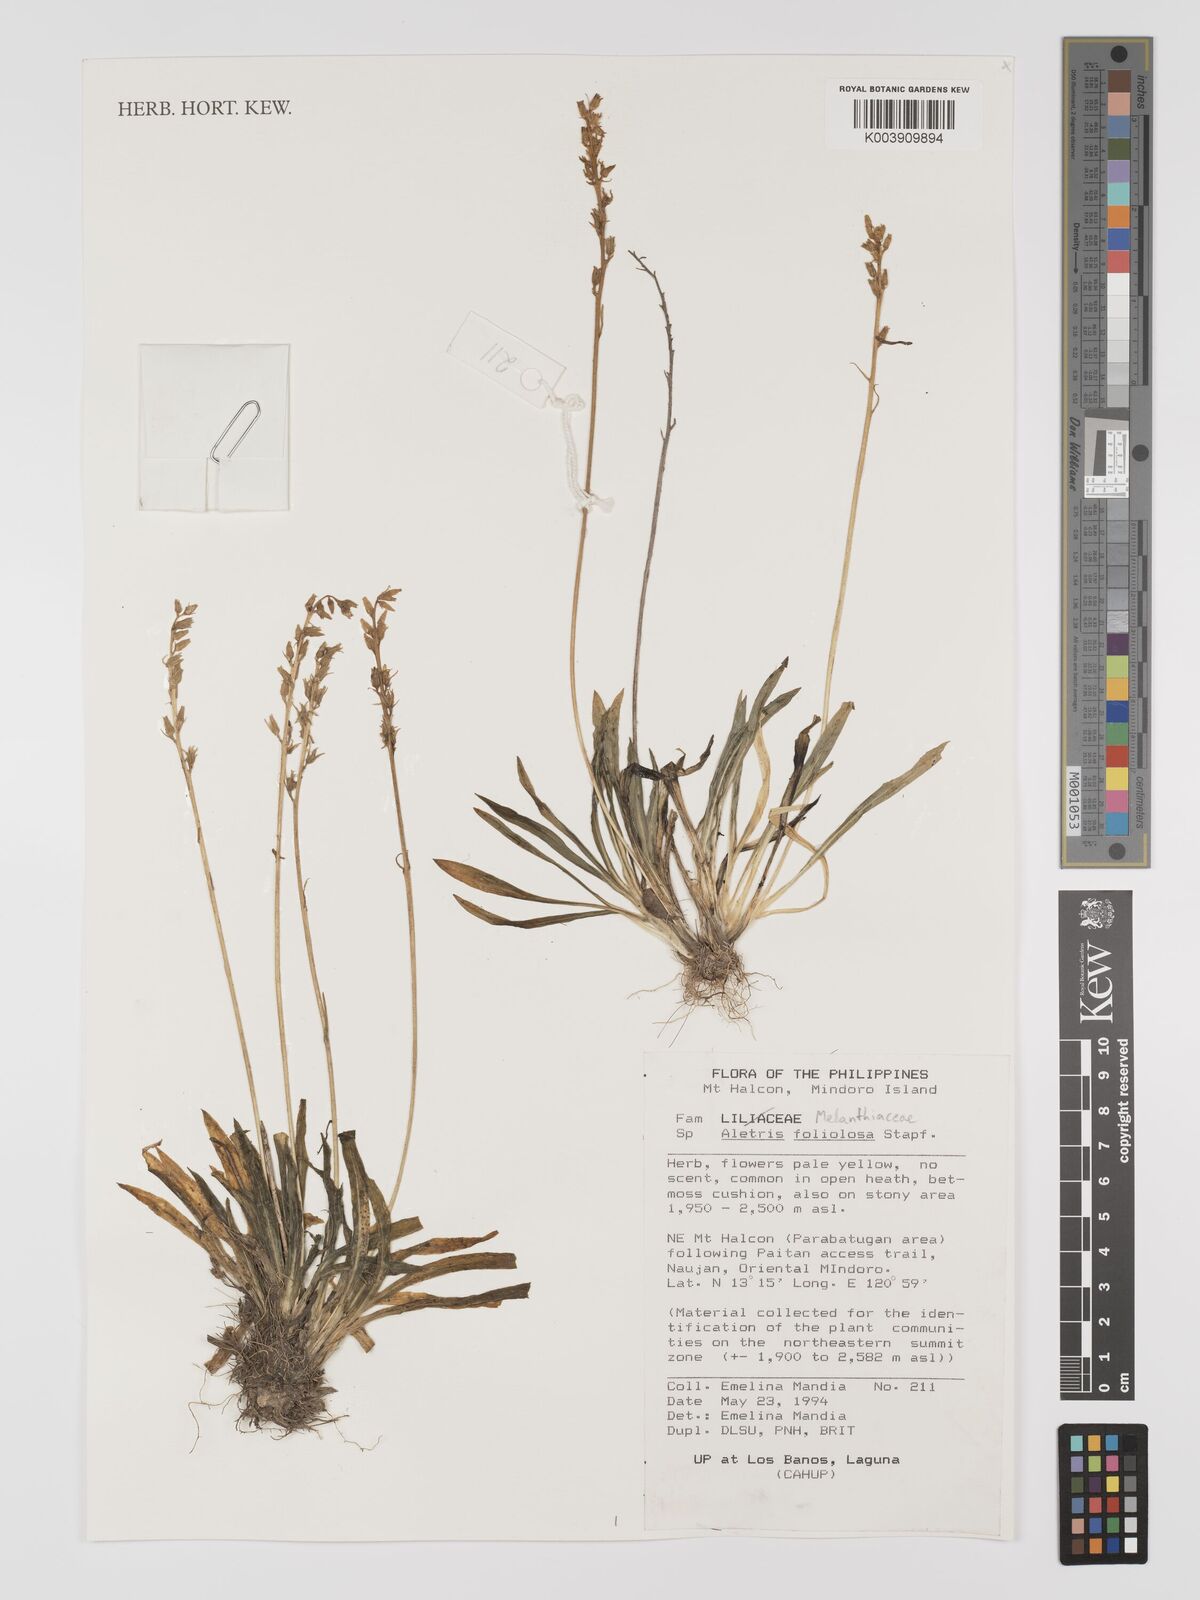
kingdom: Plantae
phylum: Tracheophyta
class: Liliopsida
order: Dioscoreales
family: Nartheciaceae
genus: Aletris
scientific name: Aletris foliolosa
